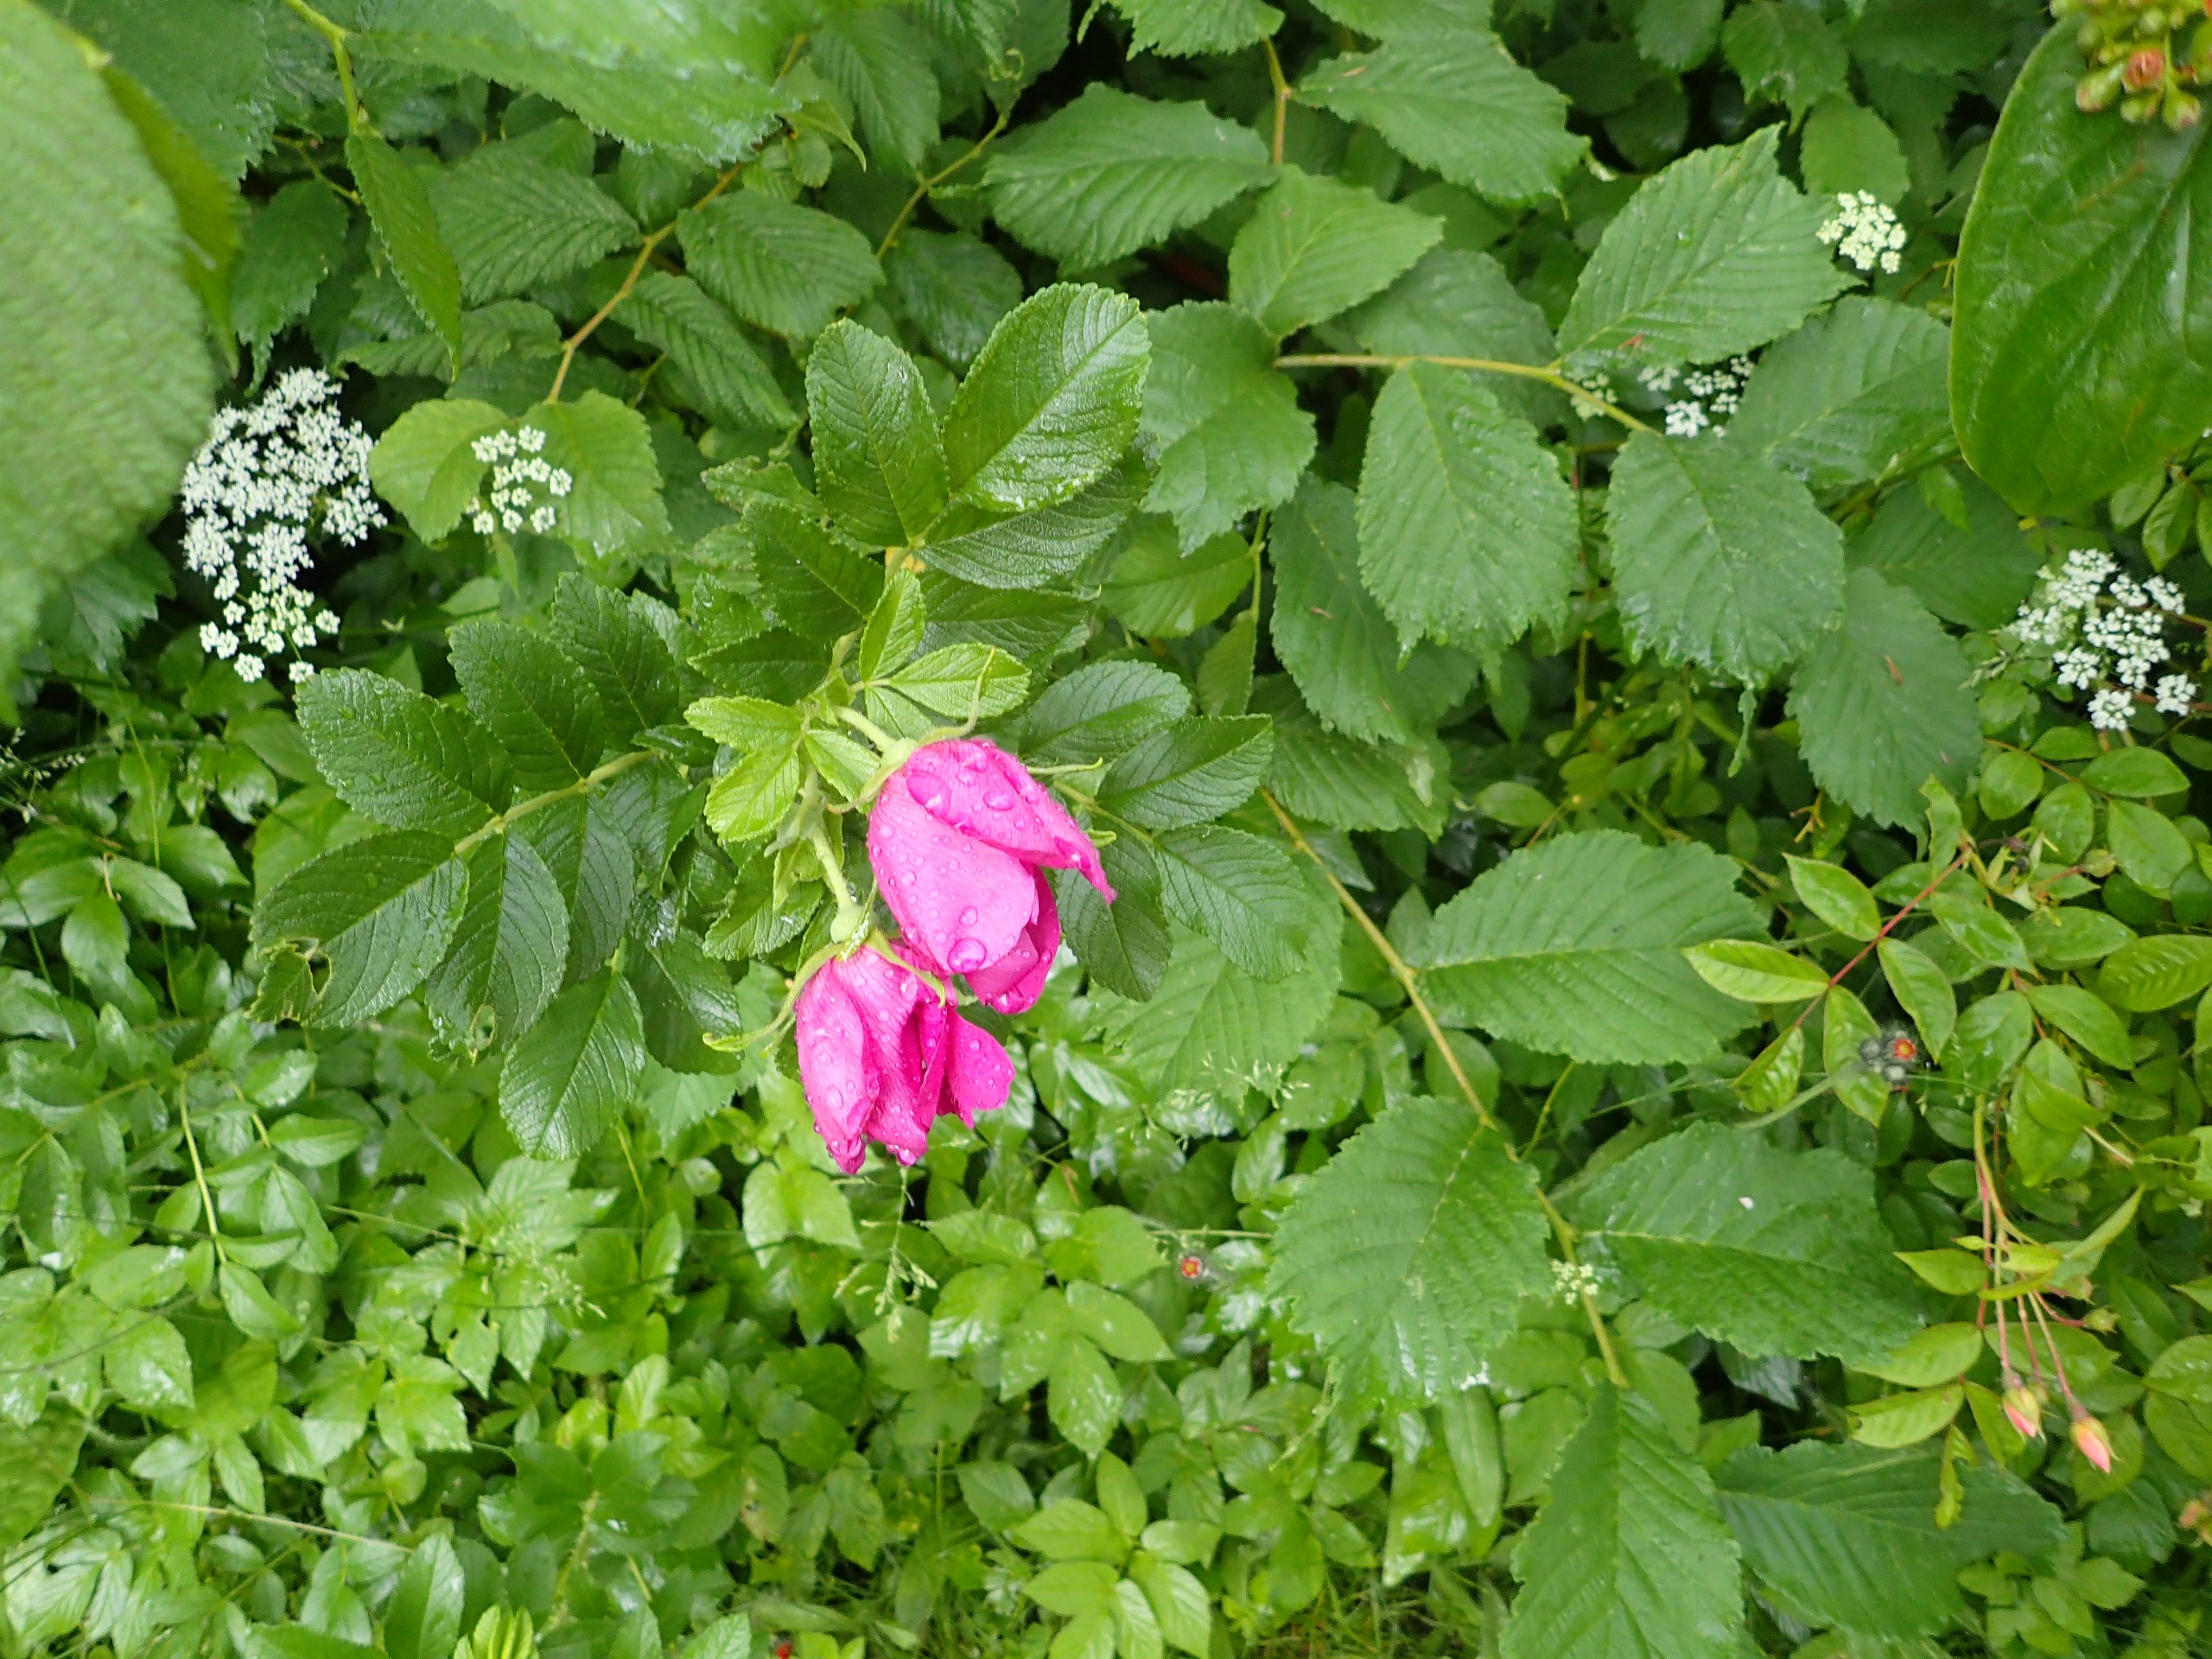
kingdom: Plantae
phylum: Tracheophyta
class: Magnoliopsida
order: Rosales
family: Rosaceae
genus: Rosa
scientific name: Rosa rugosa
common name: Rynket rose
